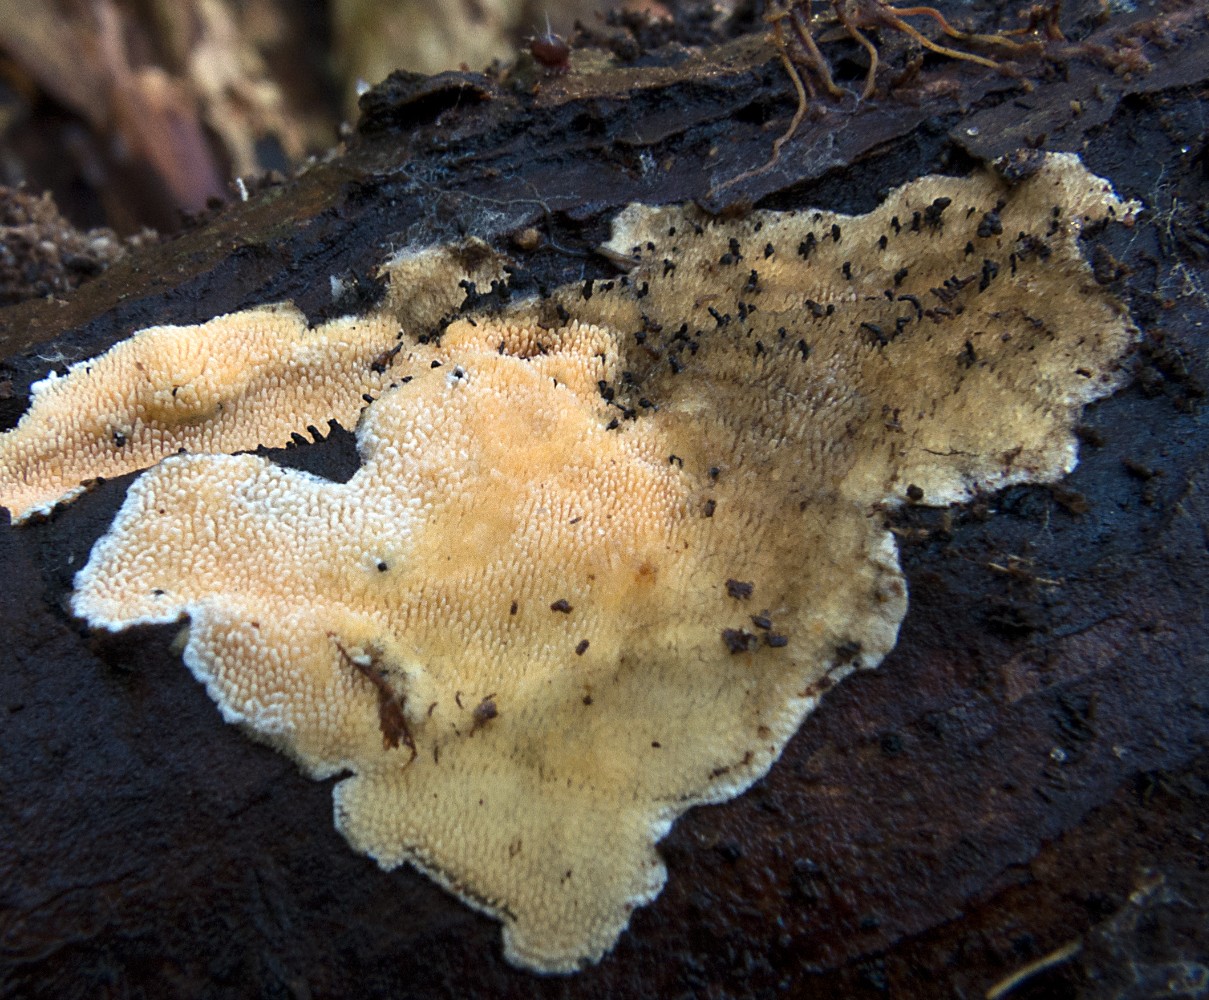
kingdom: Fungi
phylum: Ascomycota
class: Sordariomycetes
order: Boliniales
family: Boliniaceae
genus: Ceratostomella
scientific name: Ceratostomella
